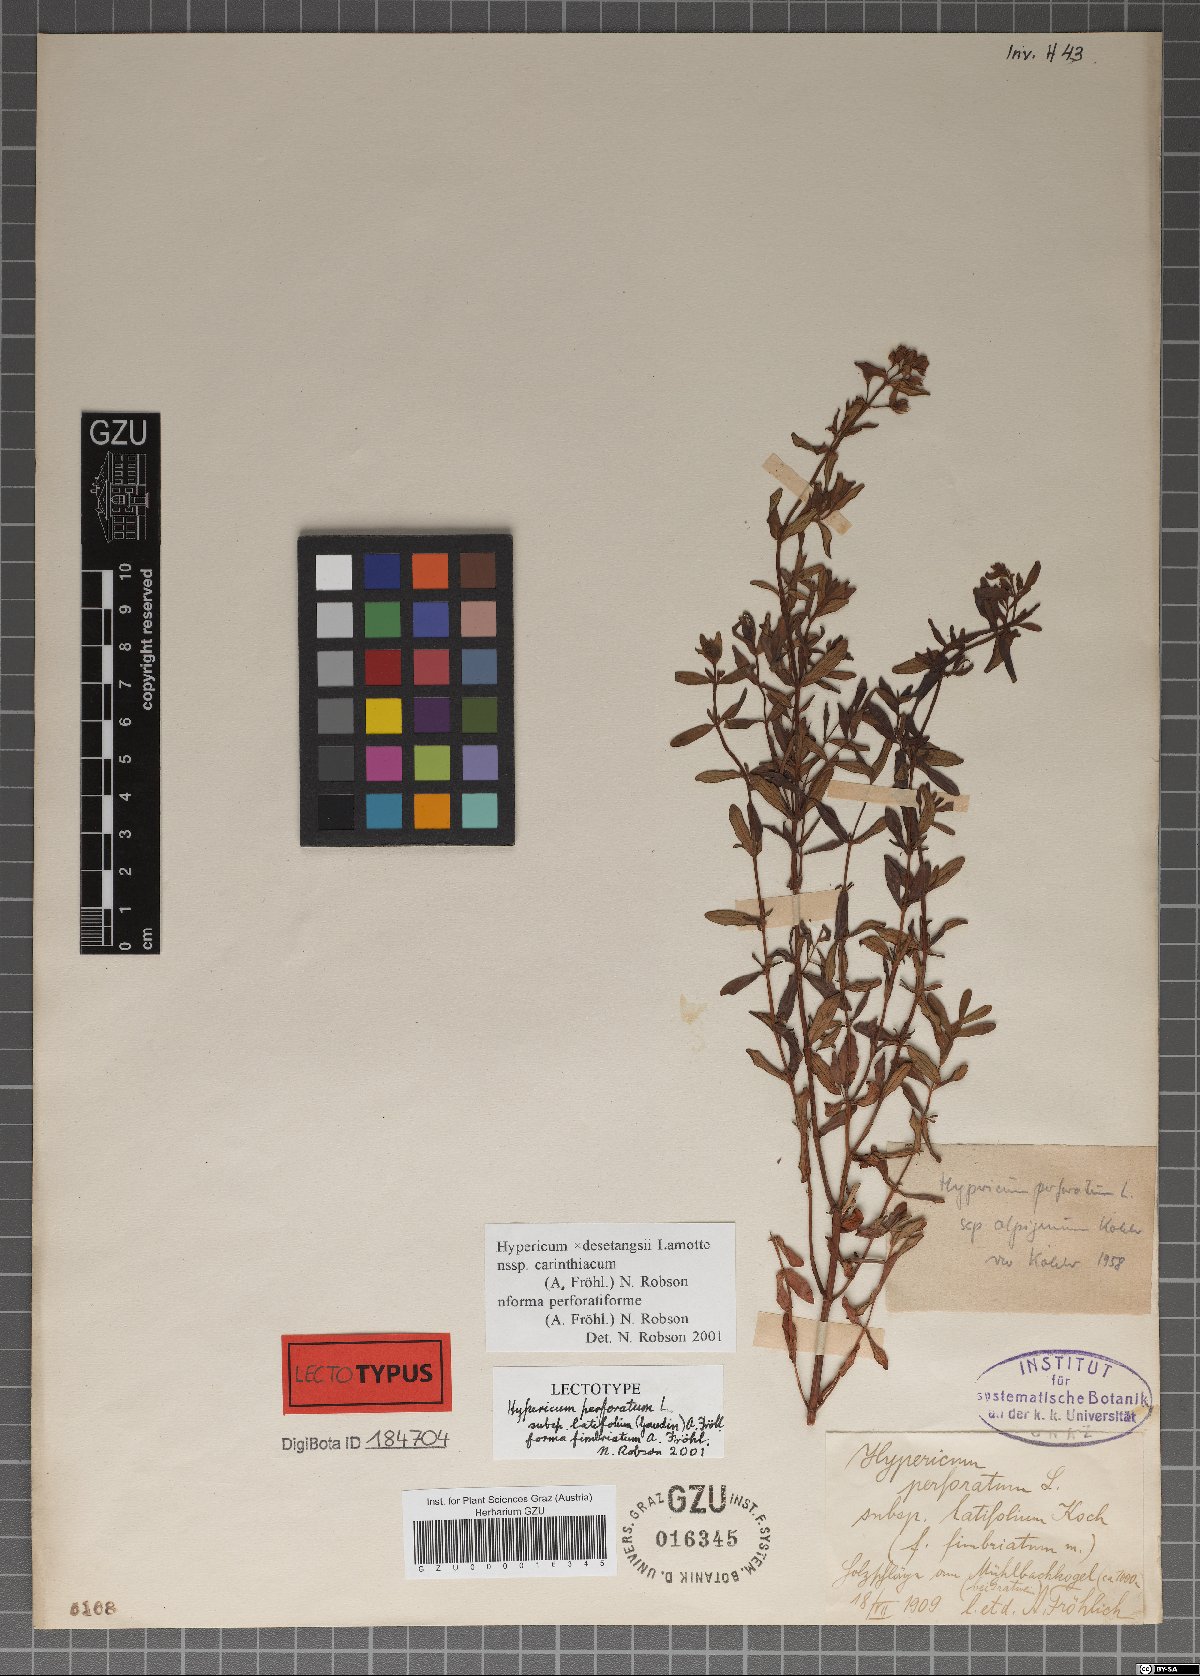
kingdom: Plantae
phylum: Tracheophyta
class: Magnoliopsida
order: Malpighiales
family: Hypericaceae
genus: Hypericum
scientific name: Hypericum perforatum
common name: Common st. johnswort
